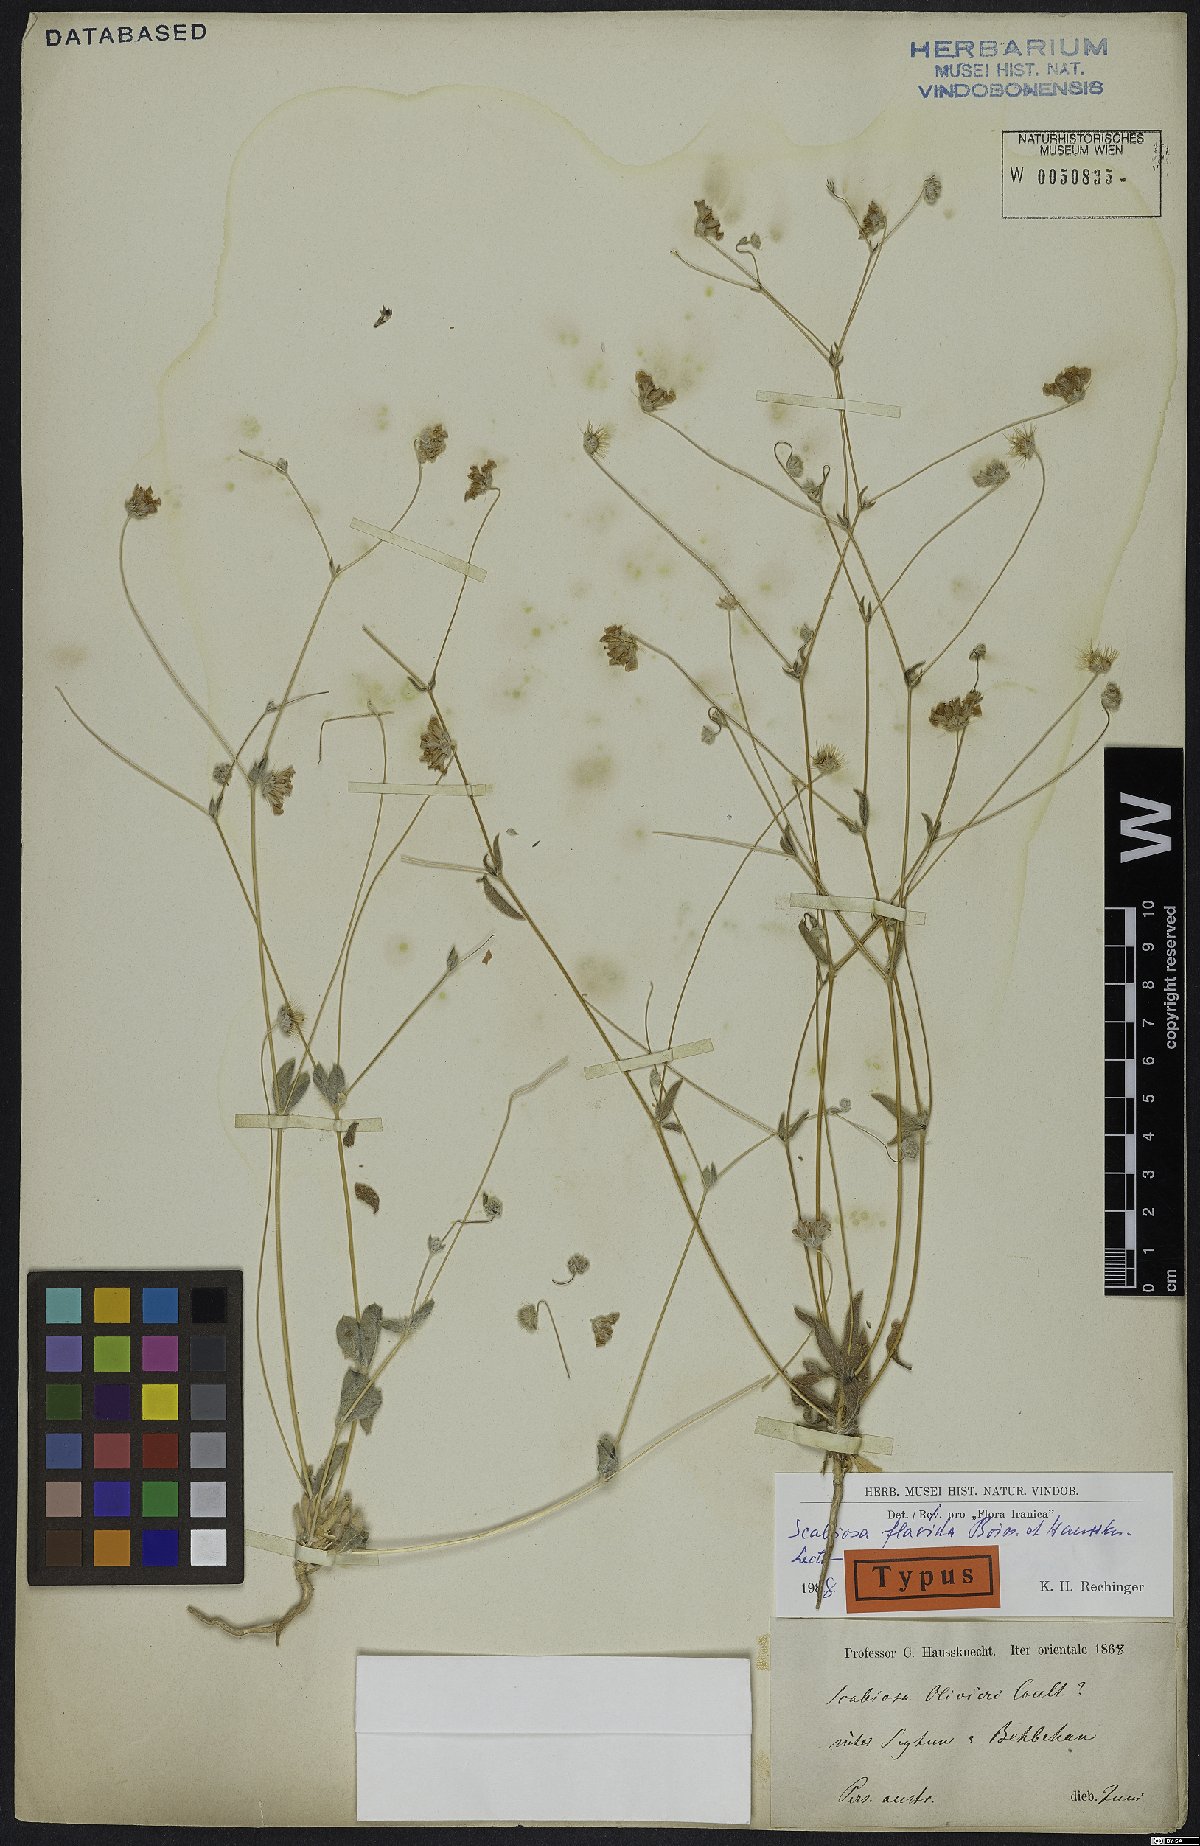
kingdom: Plantae
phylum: Tracheophyta
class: Magnoliopsida
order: Dipsacales
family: Caprifoliaceae
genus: Lomelosia
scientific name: Lomelosia flavida
